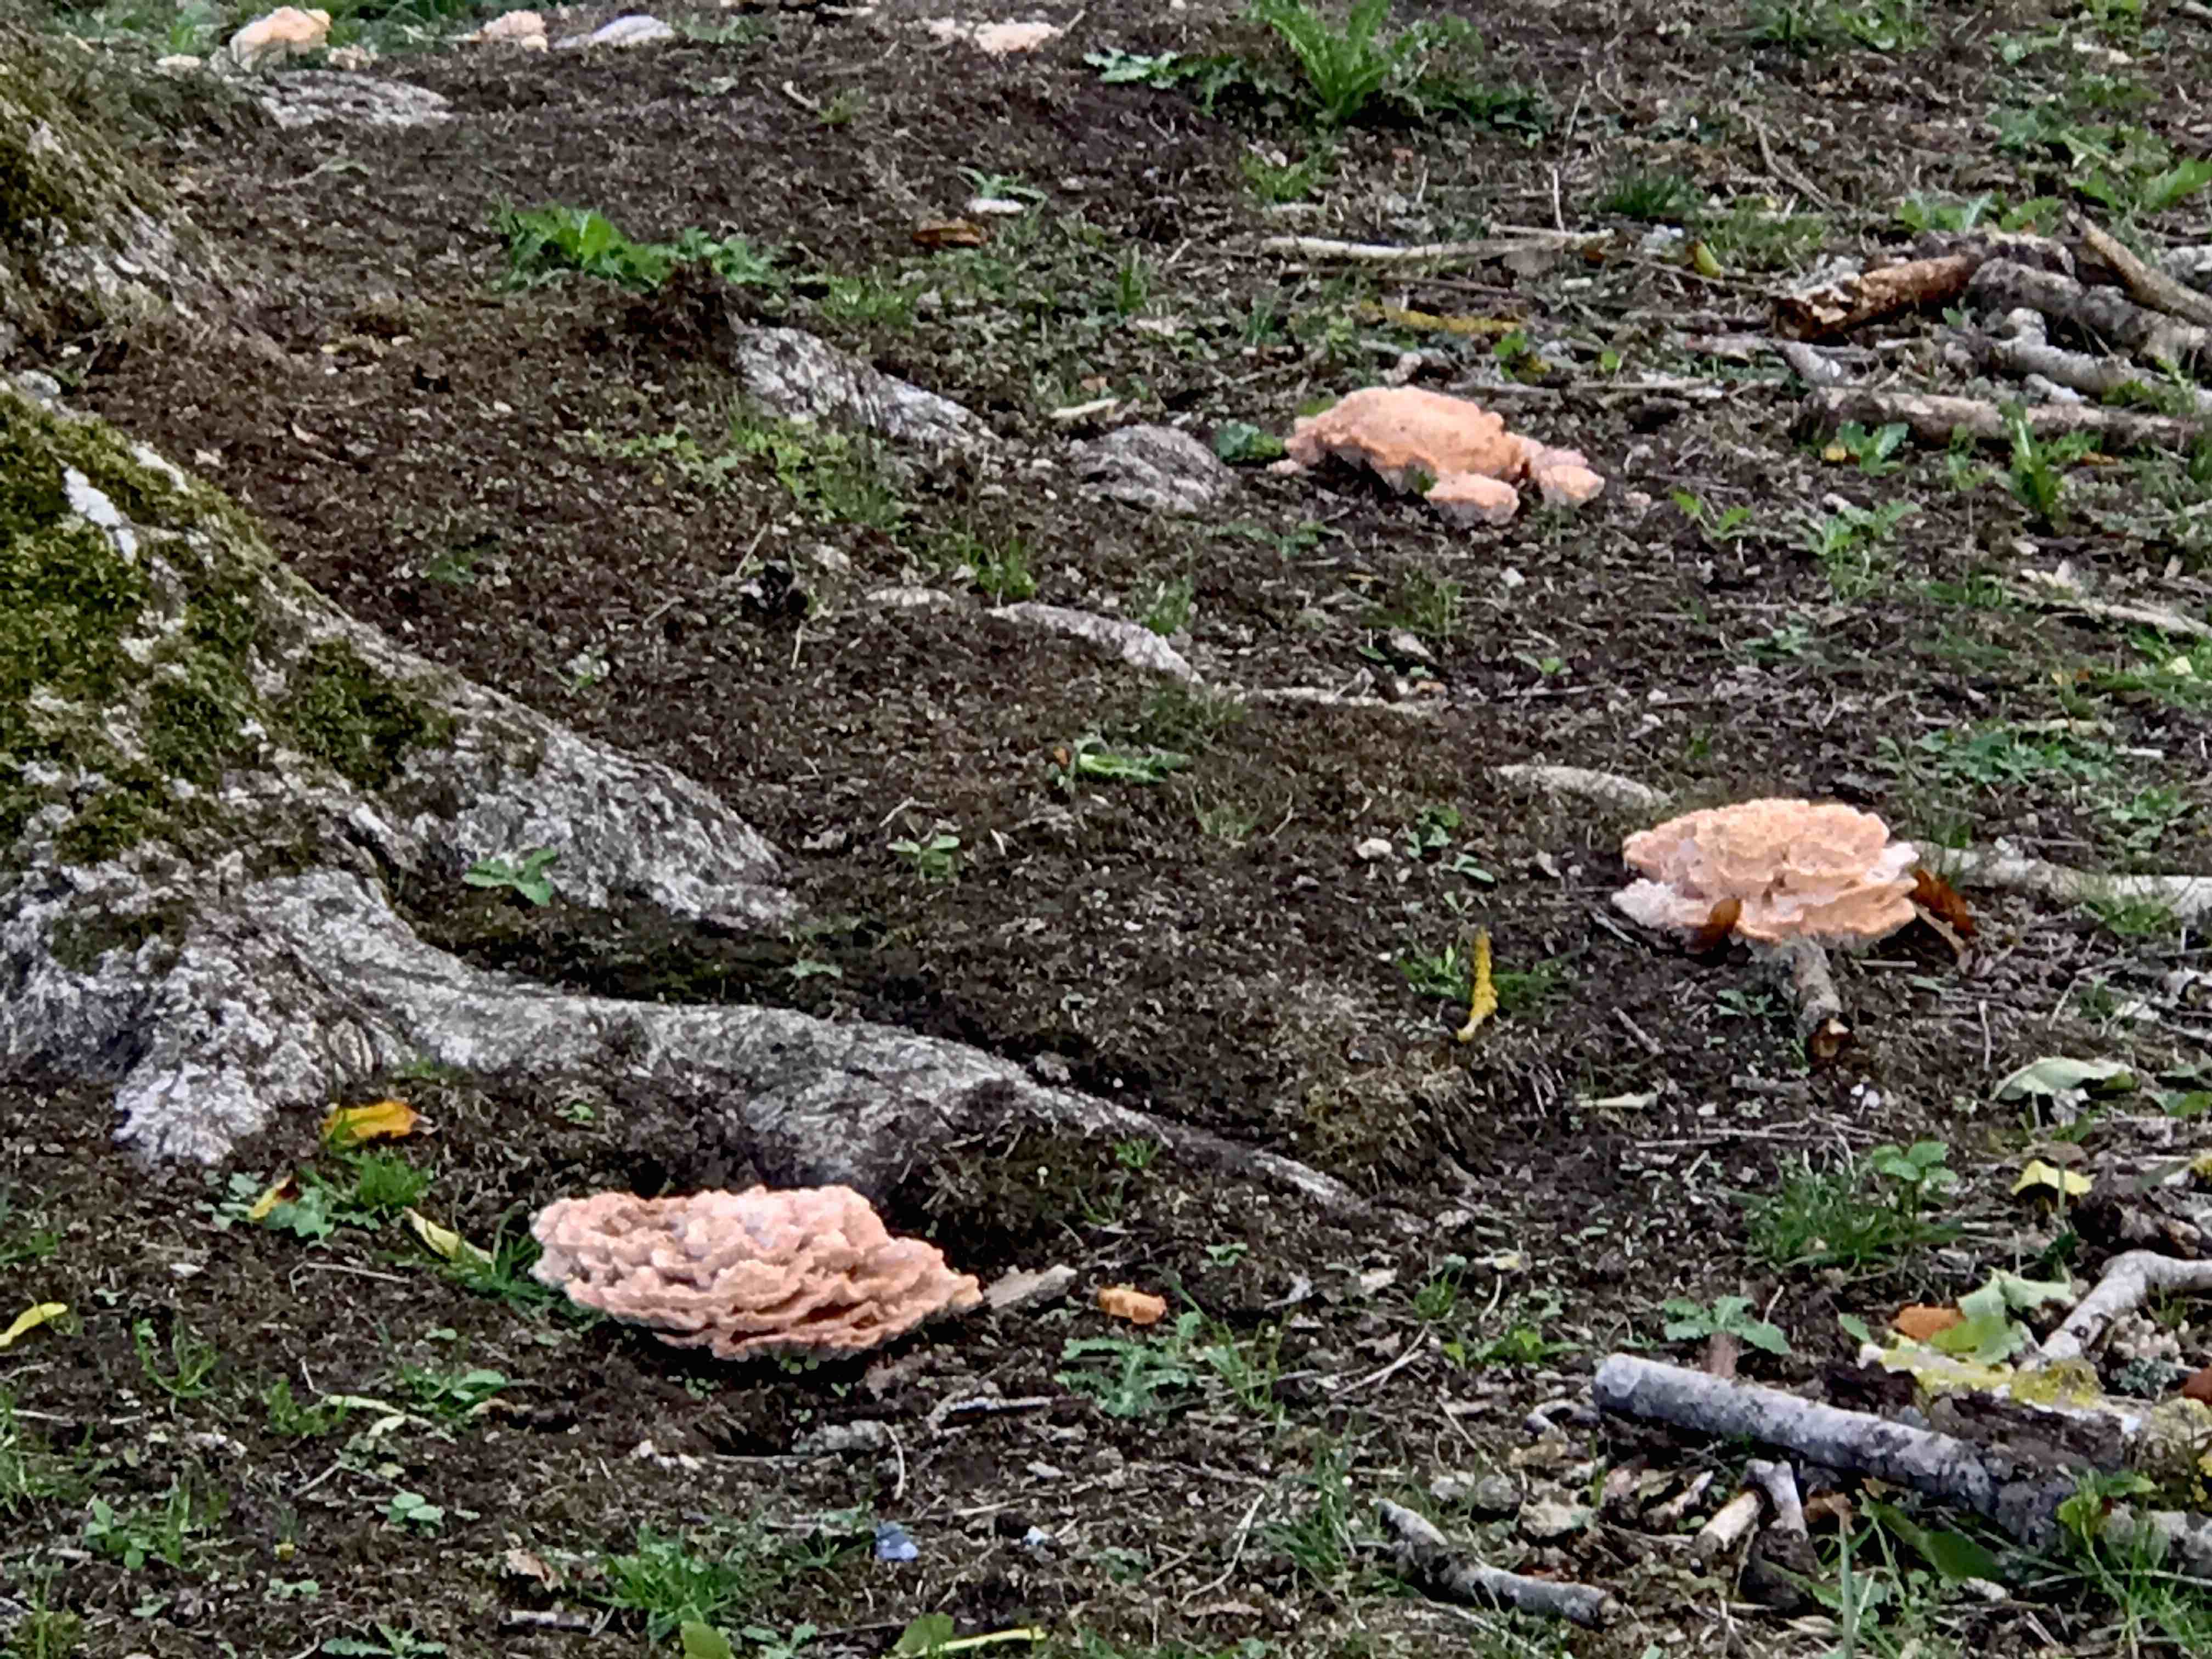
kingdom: Fungi
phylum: Basidiomycota
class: Agaricomycetes
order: Polyporales
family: Podoscyphaceae
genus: Abortiporus
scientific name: Abortiporus biennis
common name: rødmende pjalteporesvamp
